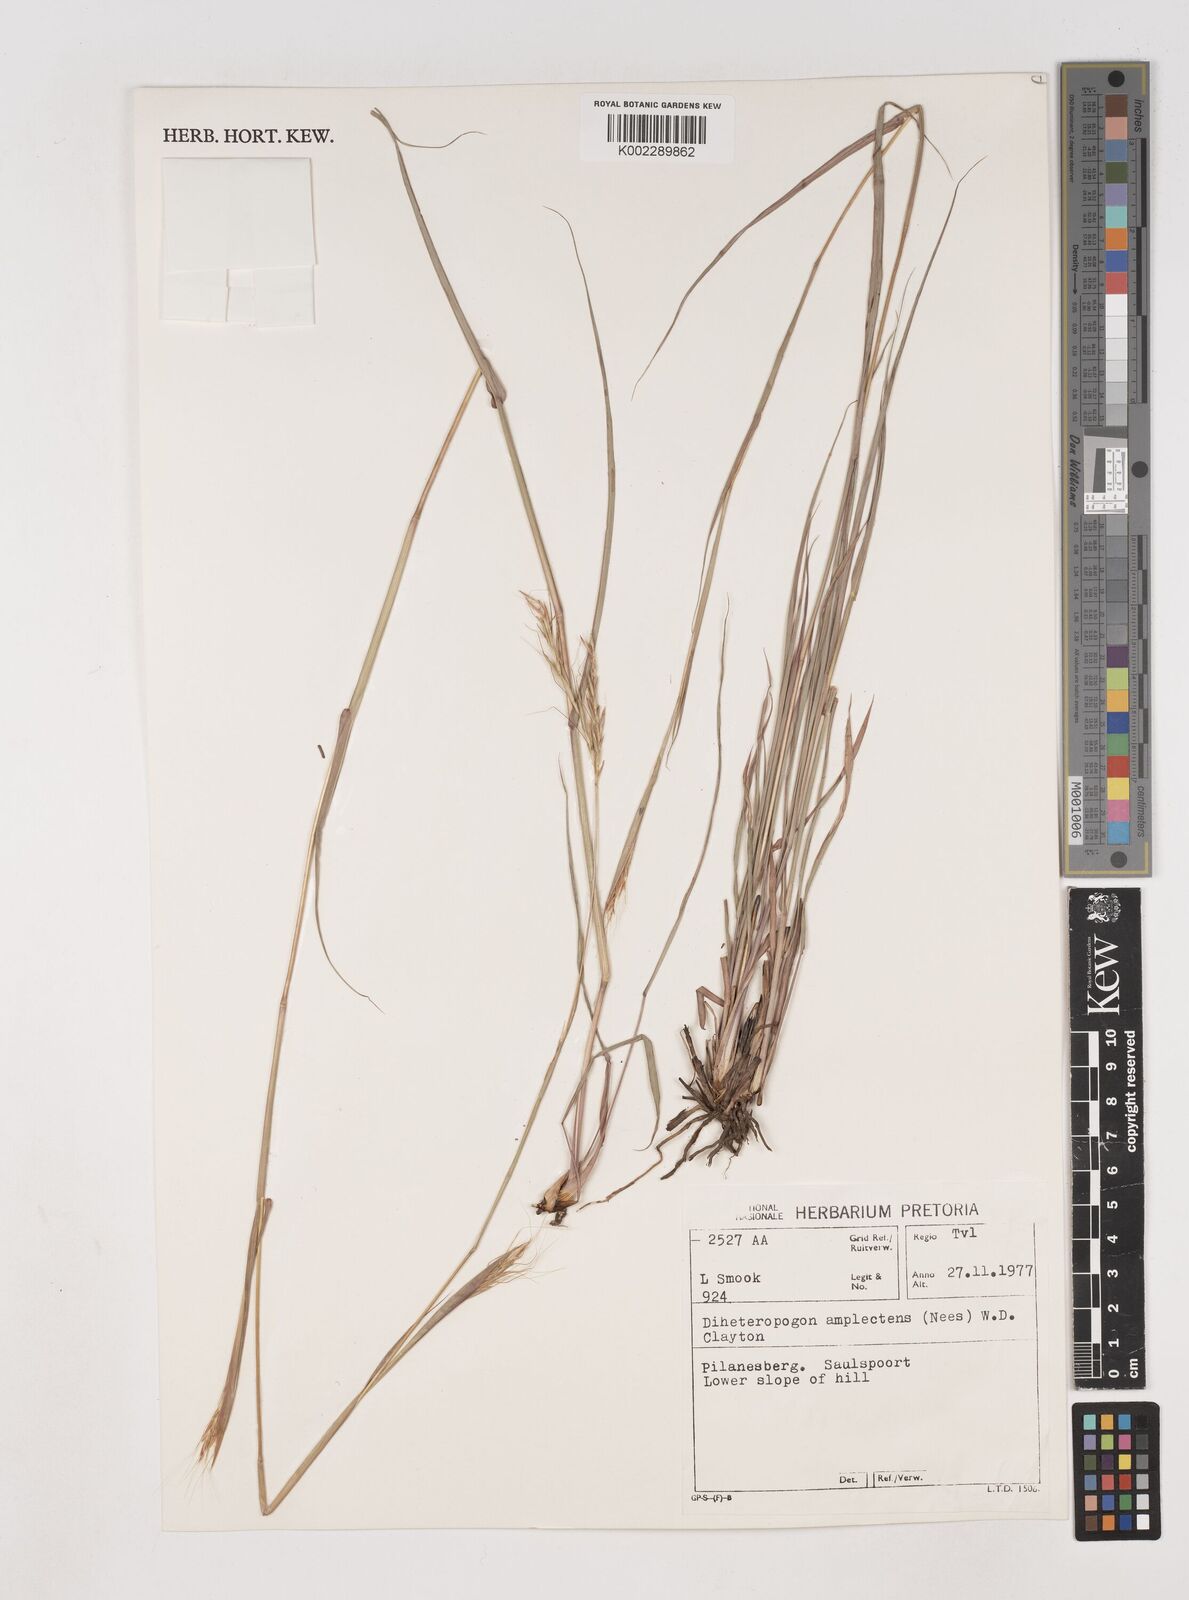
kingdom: Plantae
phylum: Tracheophyta
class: Liliopsida
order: Poales
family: Poaceae
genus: Diheteropogon
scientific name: Diheteropogon amplectens
